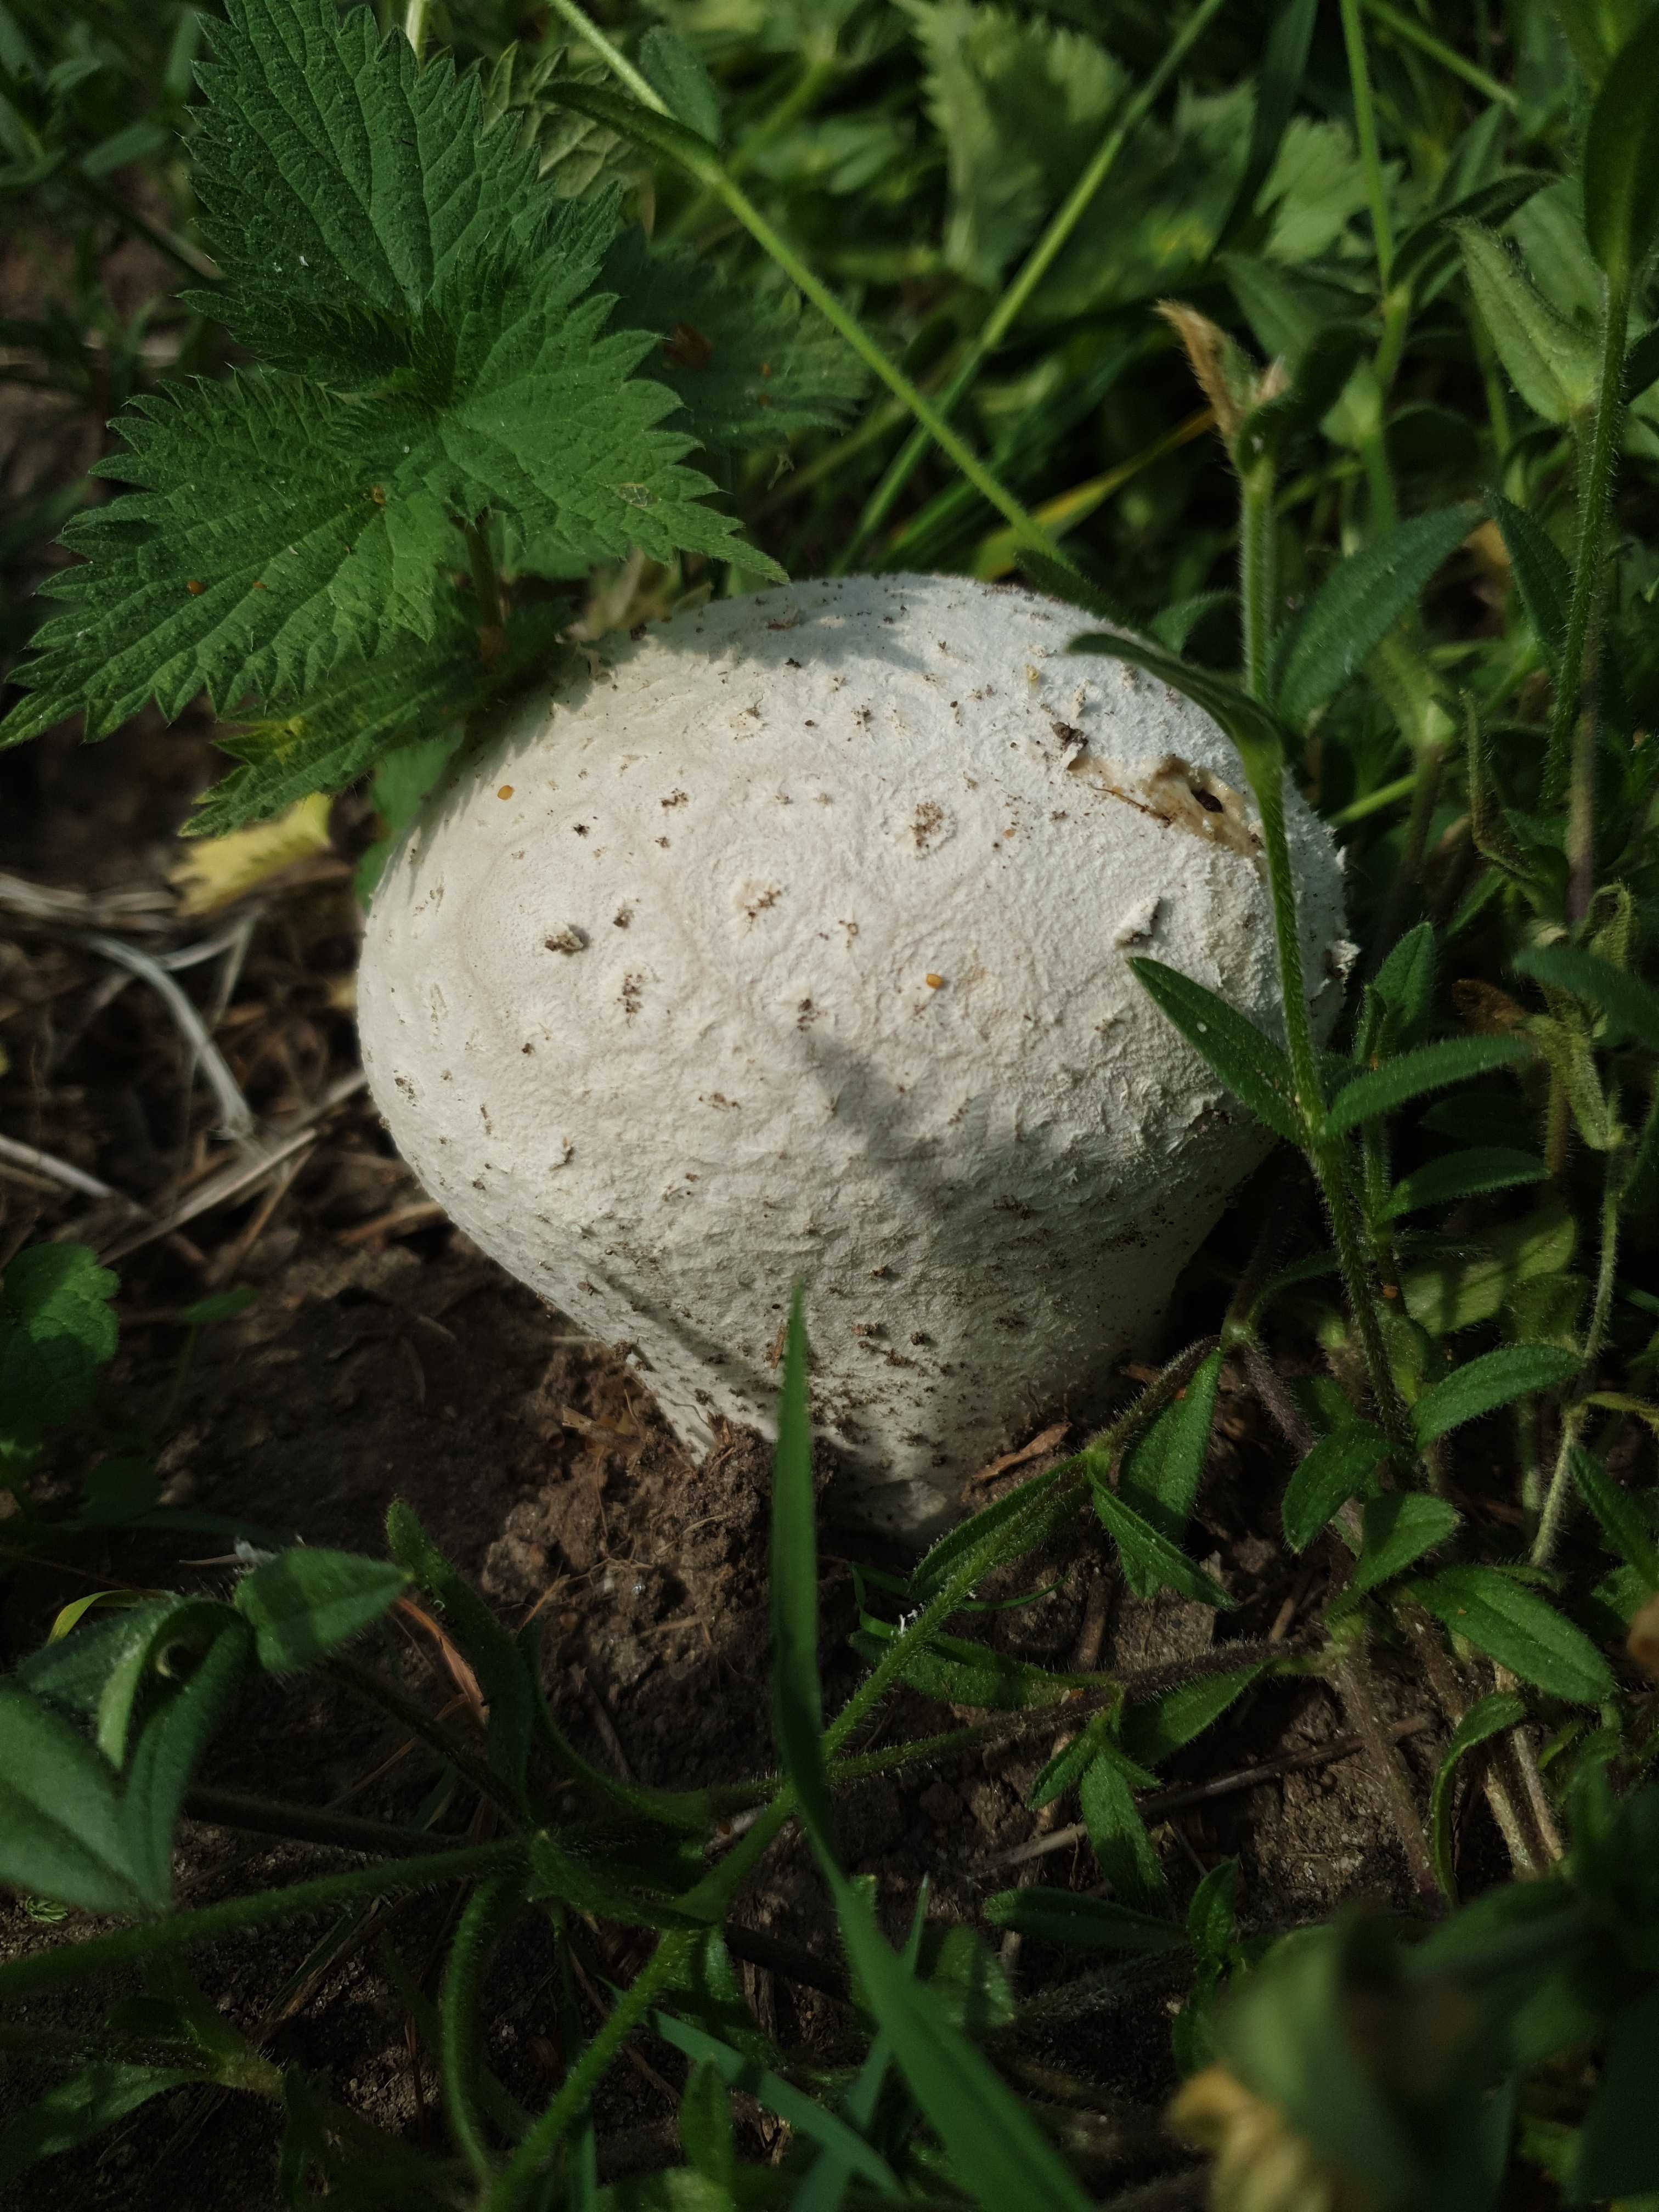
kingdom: Fungi
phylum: Basidiomycota
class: Agaricomycetes
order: Agaricales
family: Lycoperdaceae
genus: Bovistella
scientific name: Bovistella utriformis
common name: skællet støvbold
